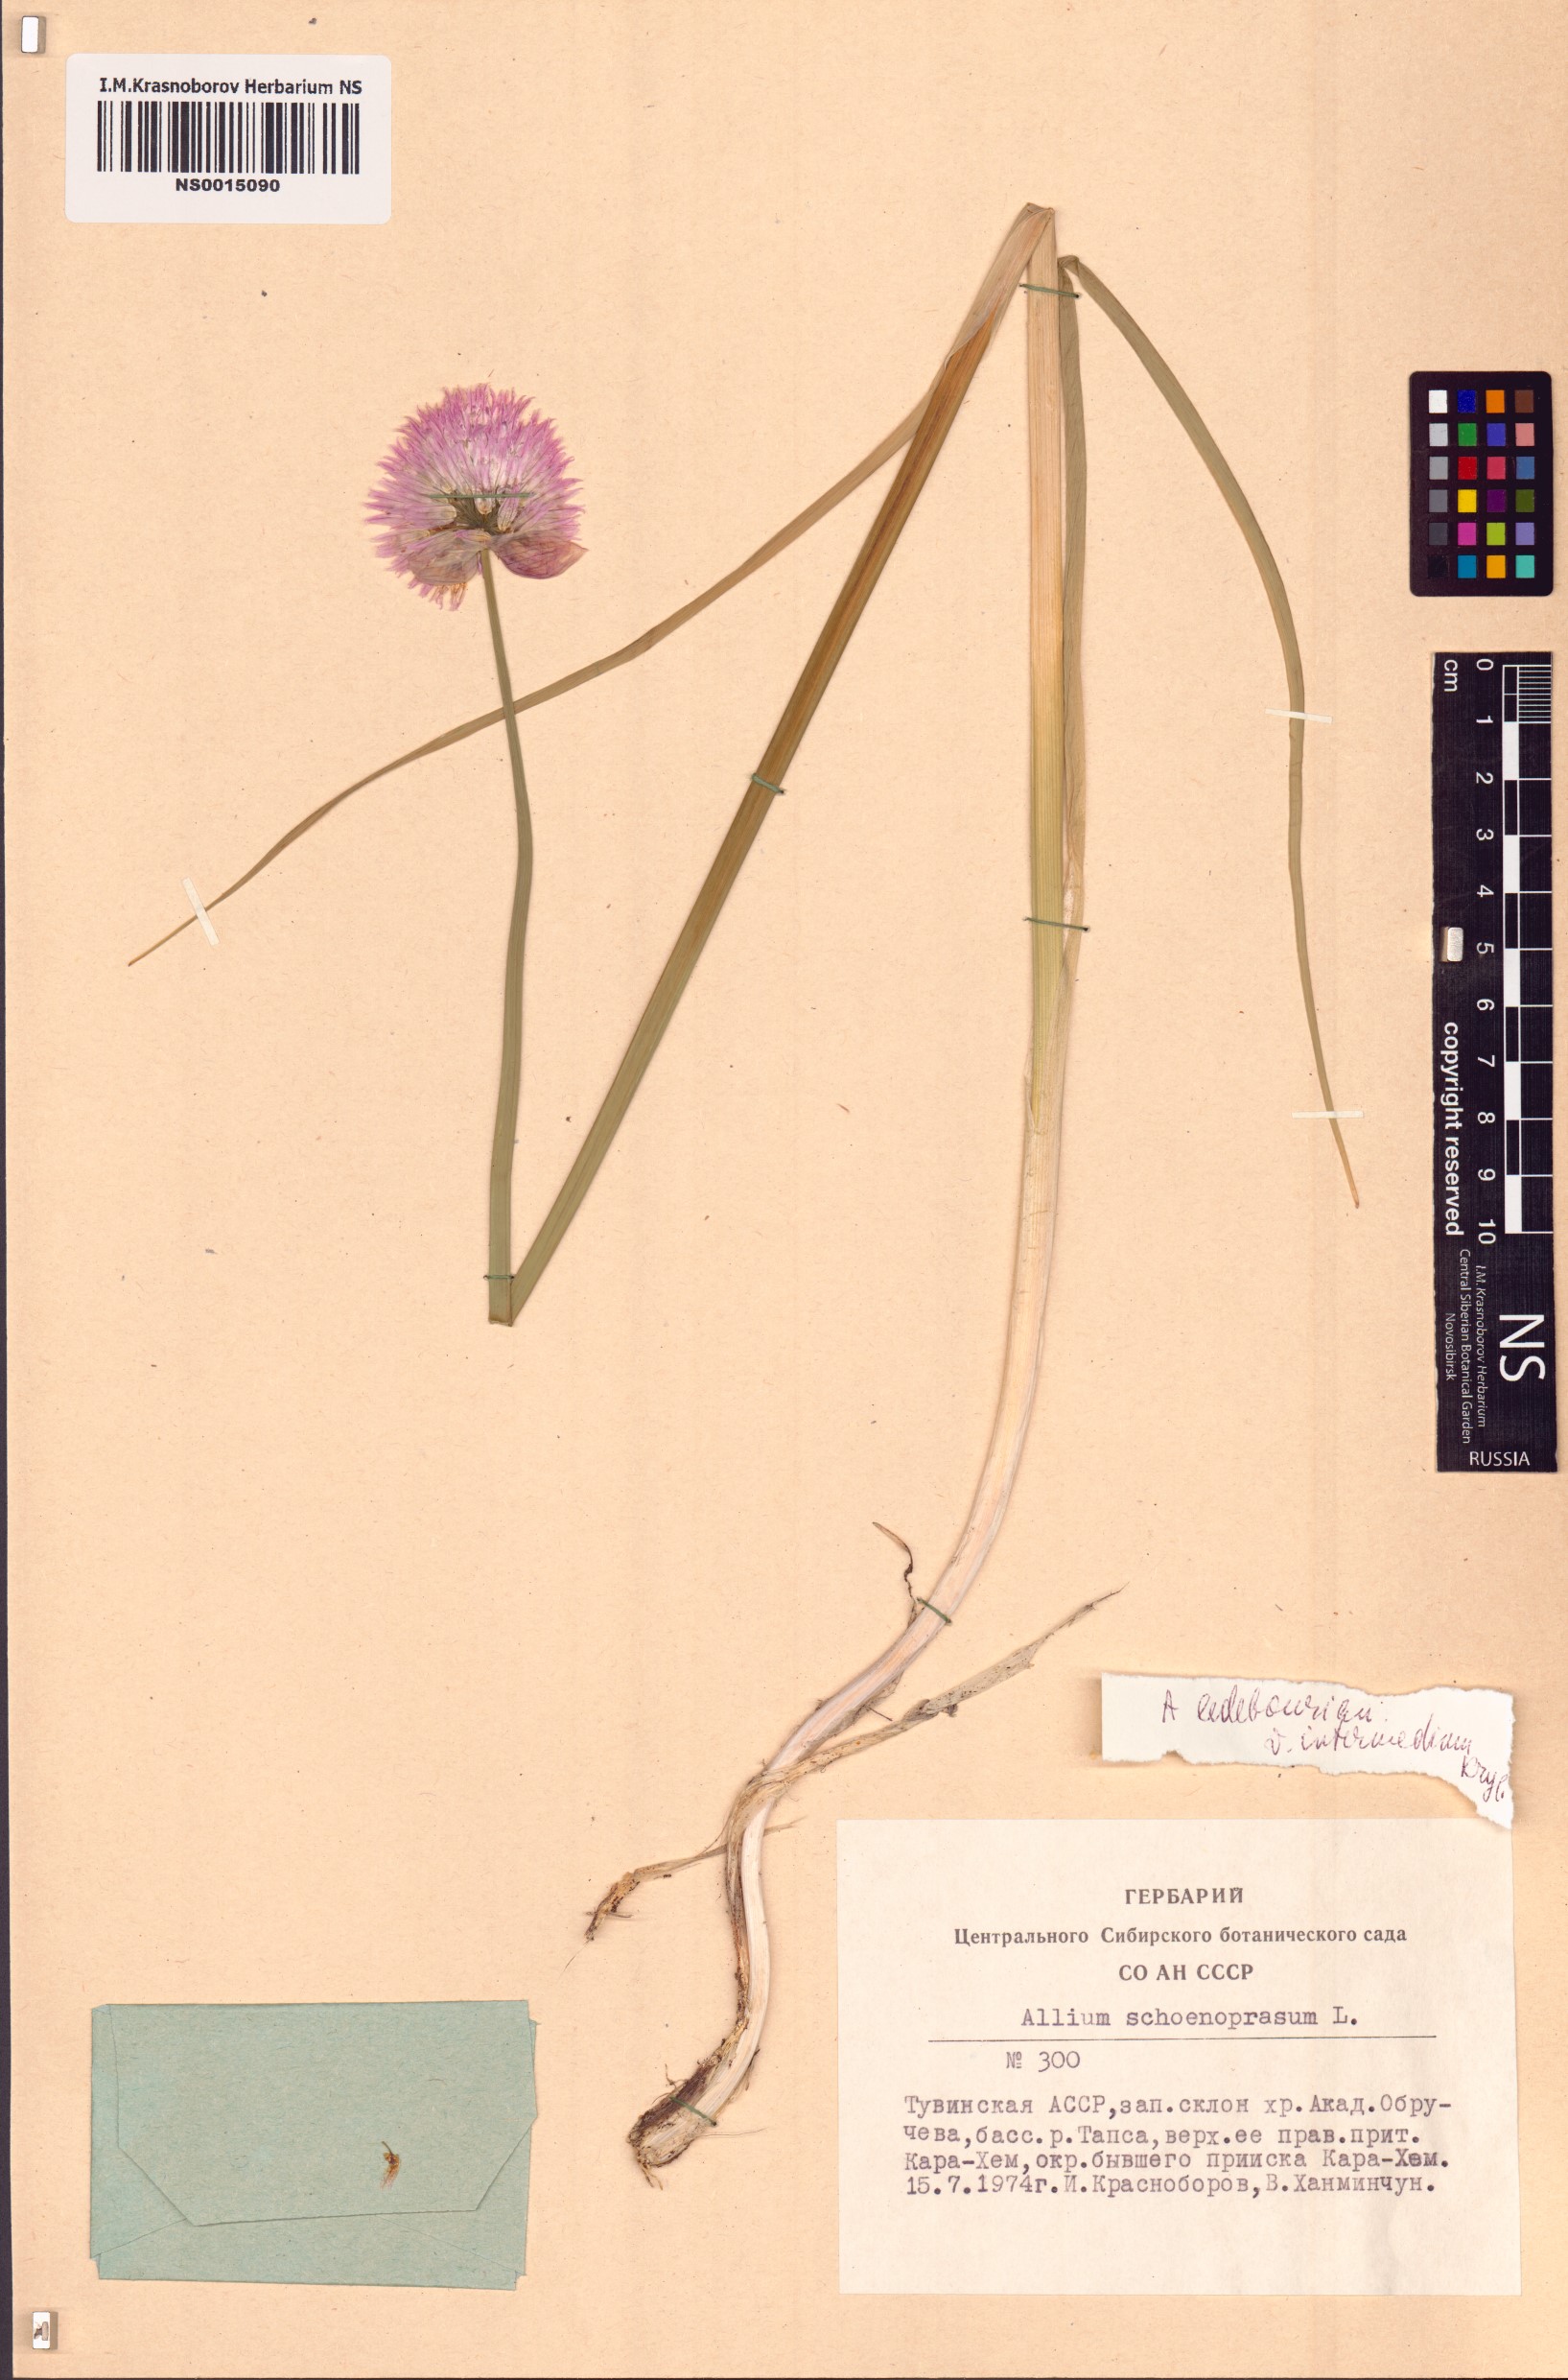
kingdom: Plantae
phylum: Tracheophyta
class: Liliopsida
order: Asparagales
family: Amaryllidaceae
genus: Allium
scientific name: Allium schoenoprasum
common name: Chives
